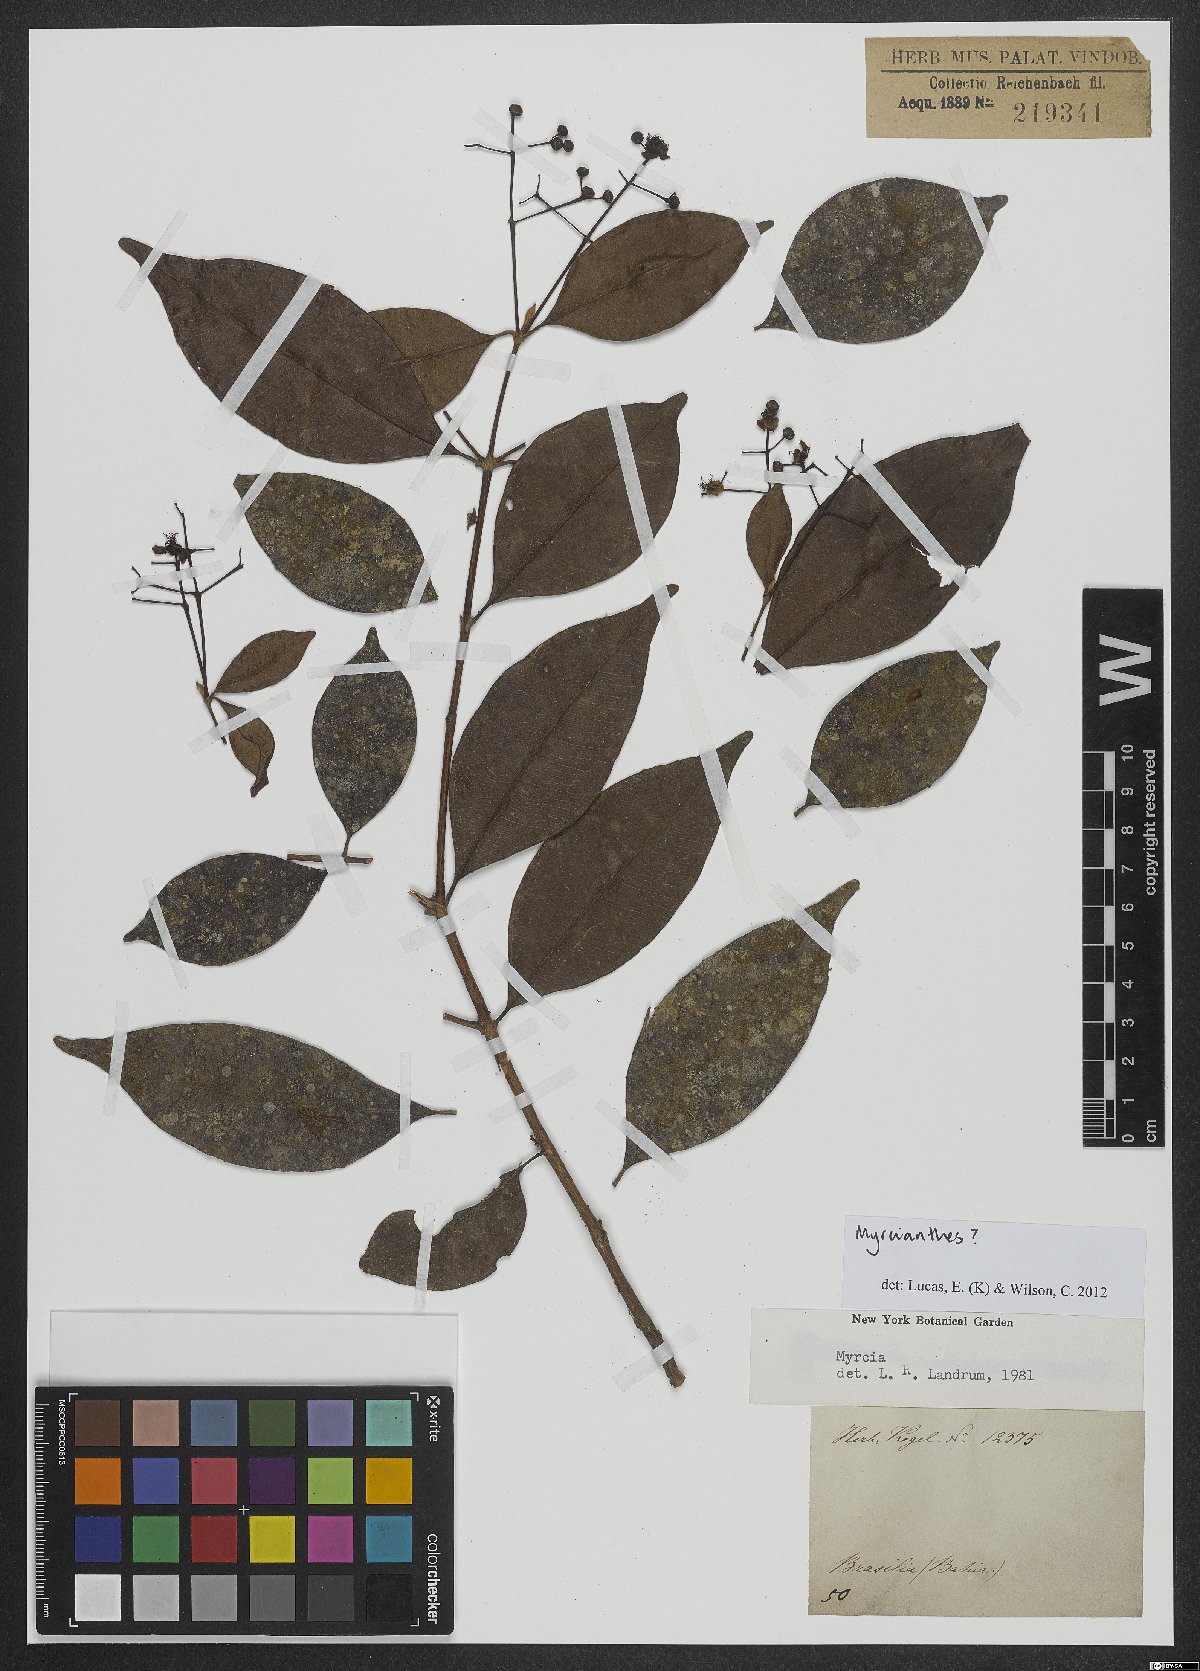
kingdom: Plantae
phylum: Tracheophyta
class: Magnoliopsida
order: Myrtales
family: Myrtaceae
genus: Myrcianthes
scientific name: Myrcianthes
